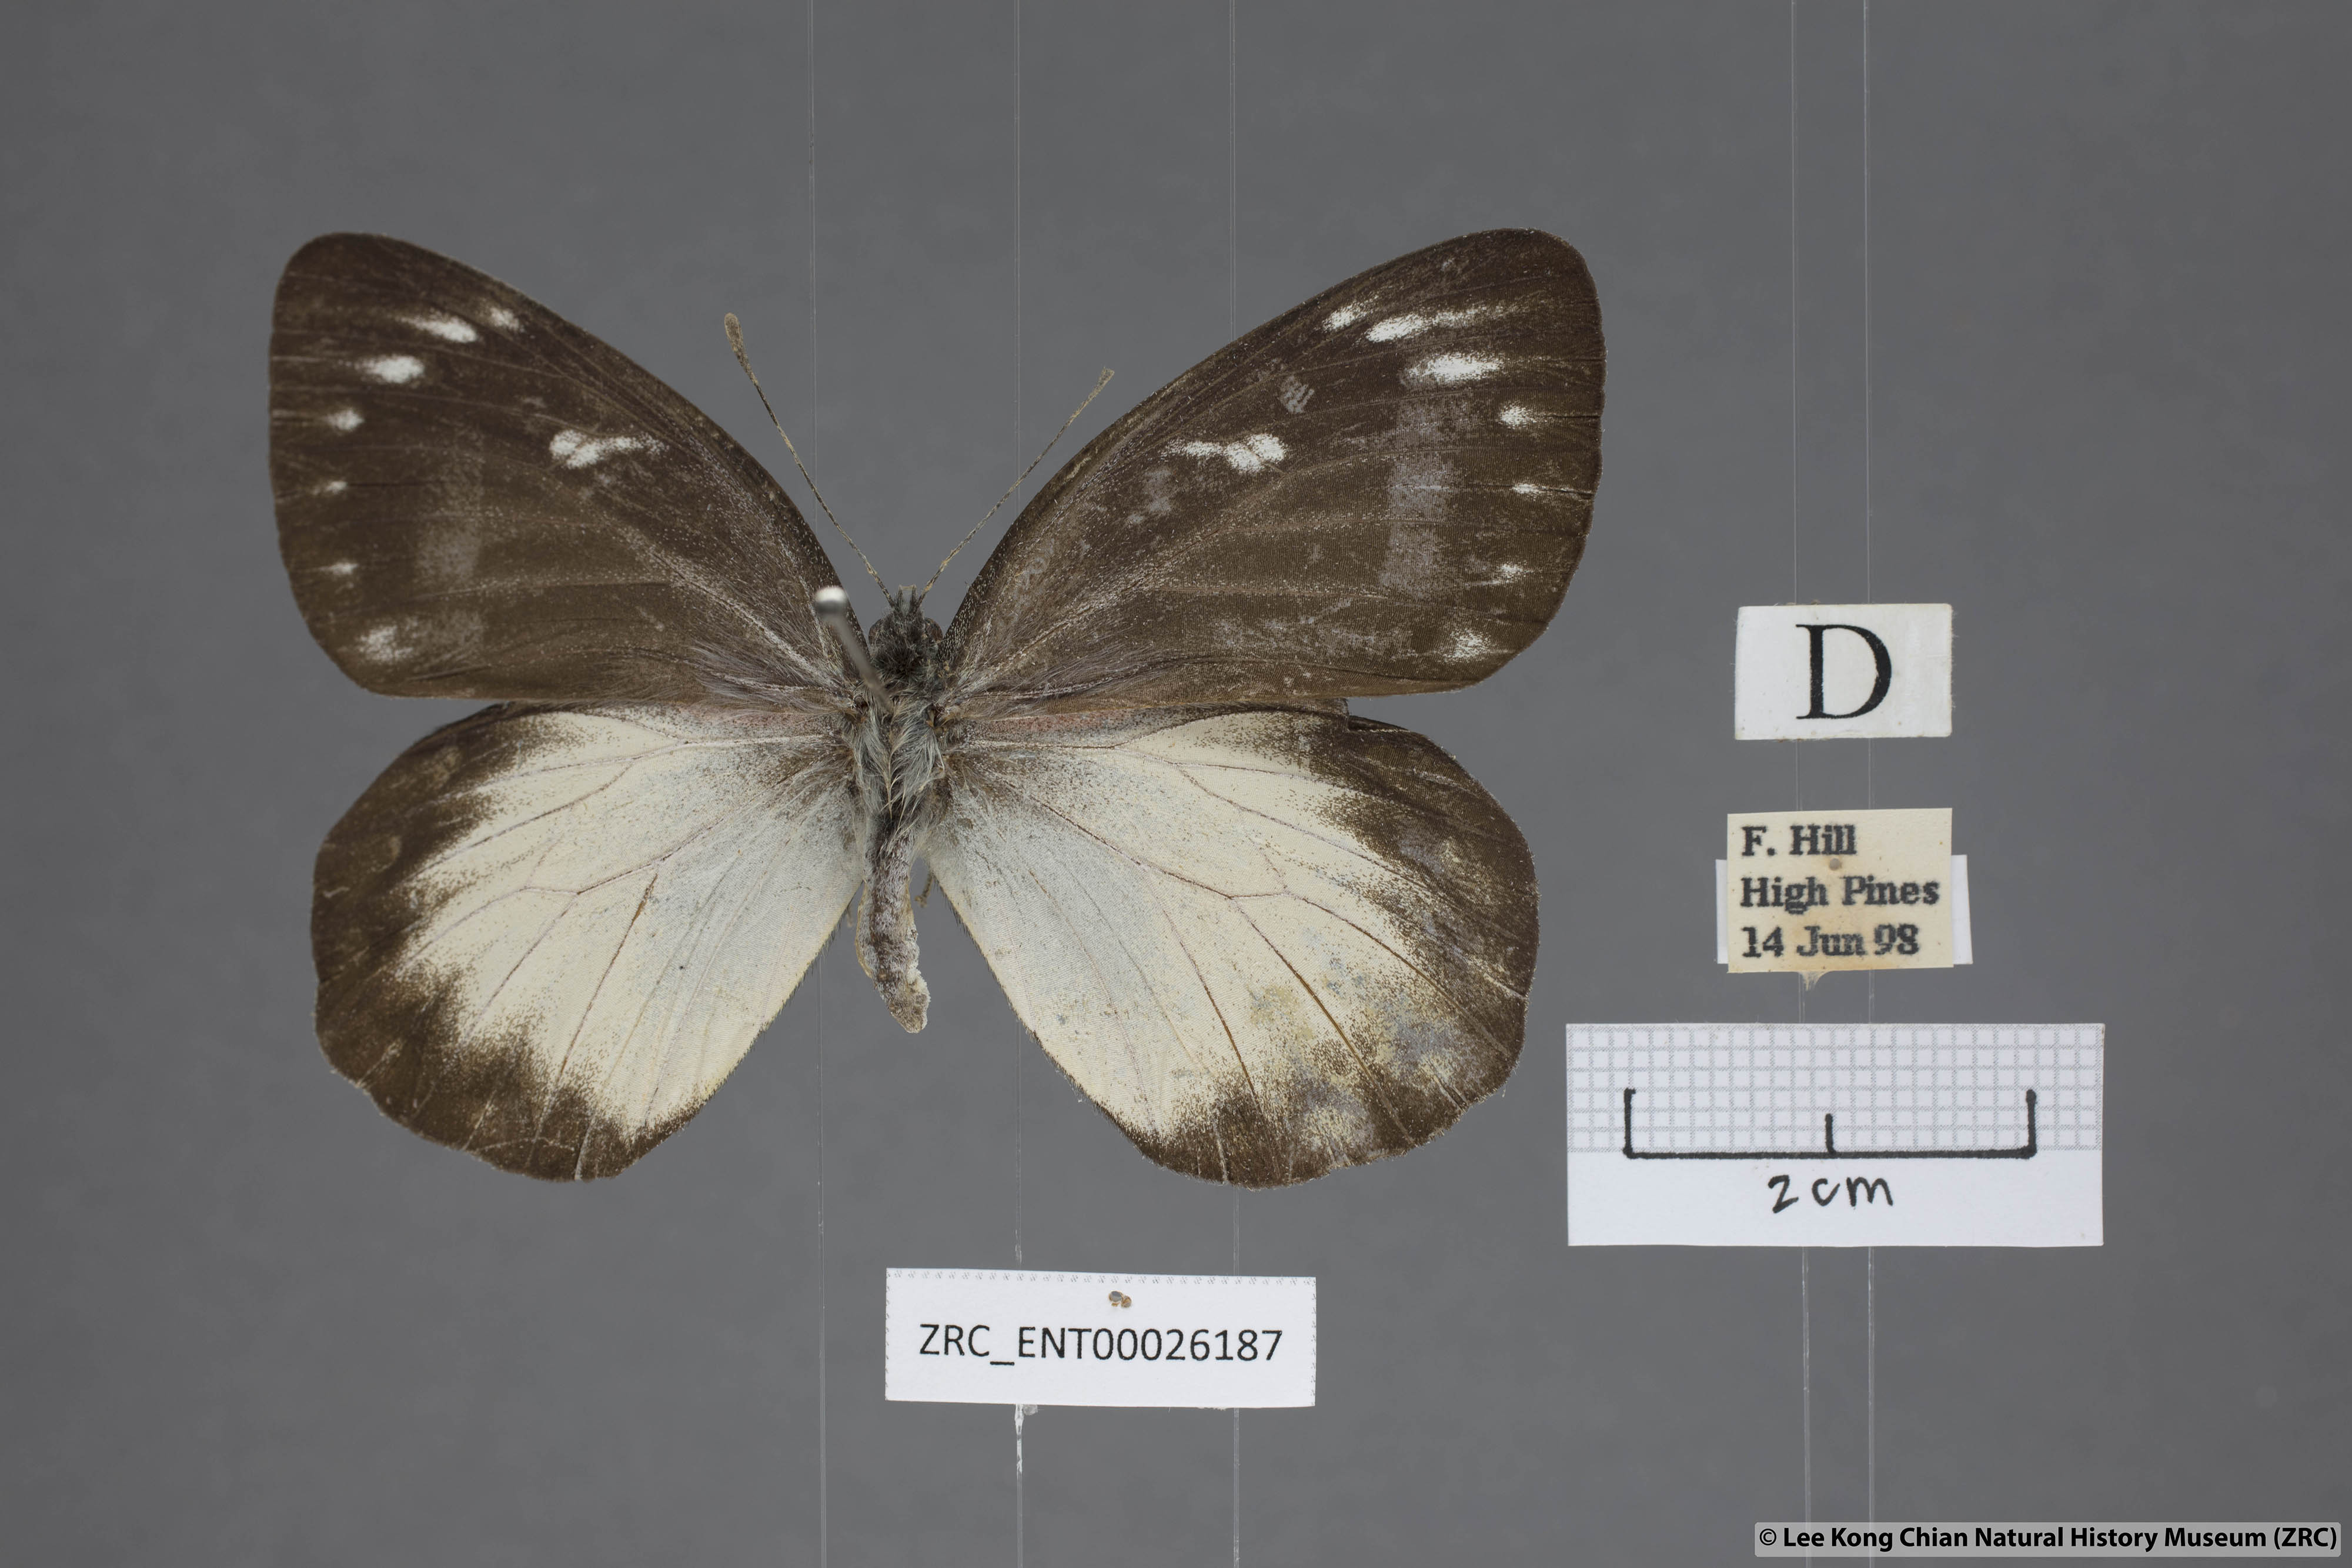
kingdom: Animalia
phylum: Arthropoda
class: Insecta
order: Lepidoptera
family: Pieridae
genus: Delias
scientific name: Delias descombesi
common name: Red-spot jezebel
